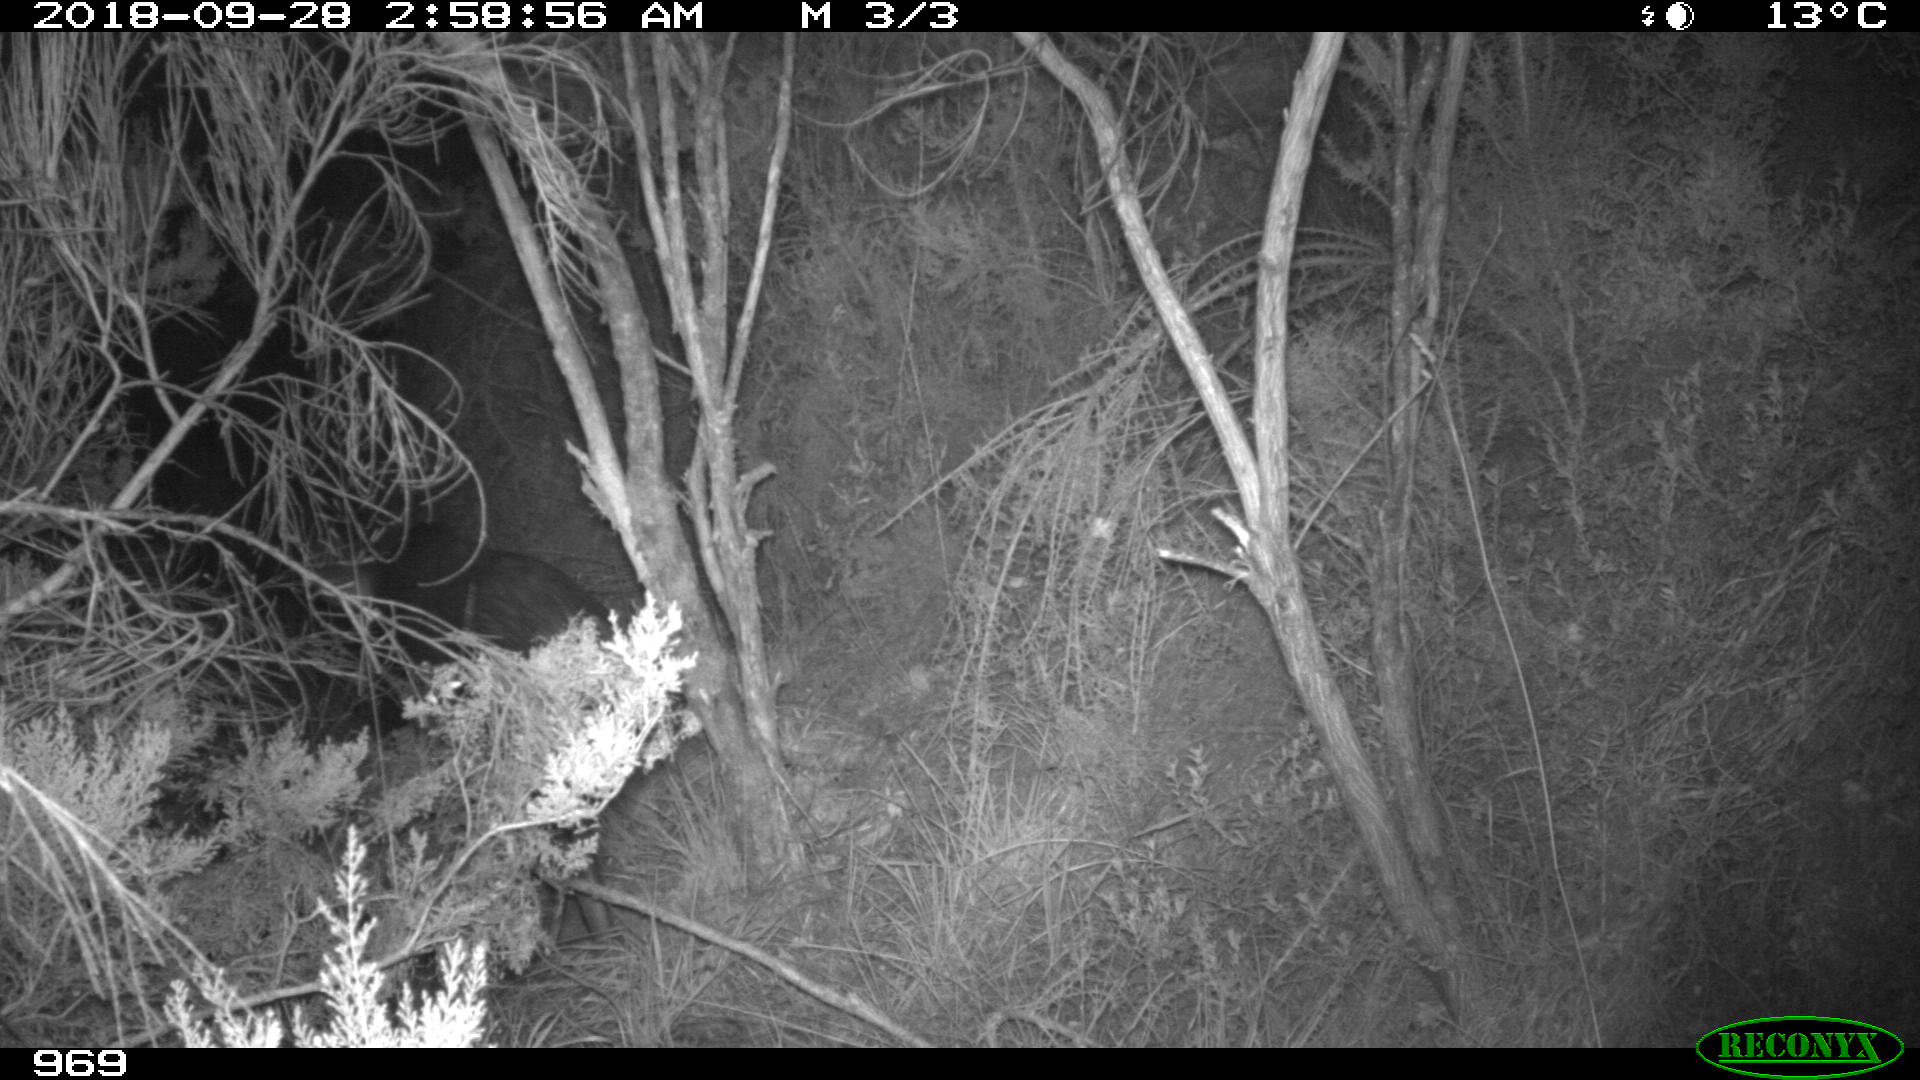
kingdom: Animalia
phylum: Chordata
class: Mammalia
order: Artiodactyla
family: Suidae
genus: Sus
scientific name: Sus scrofa
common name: Wild boar
